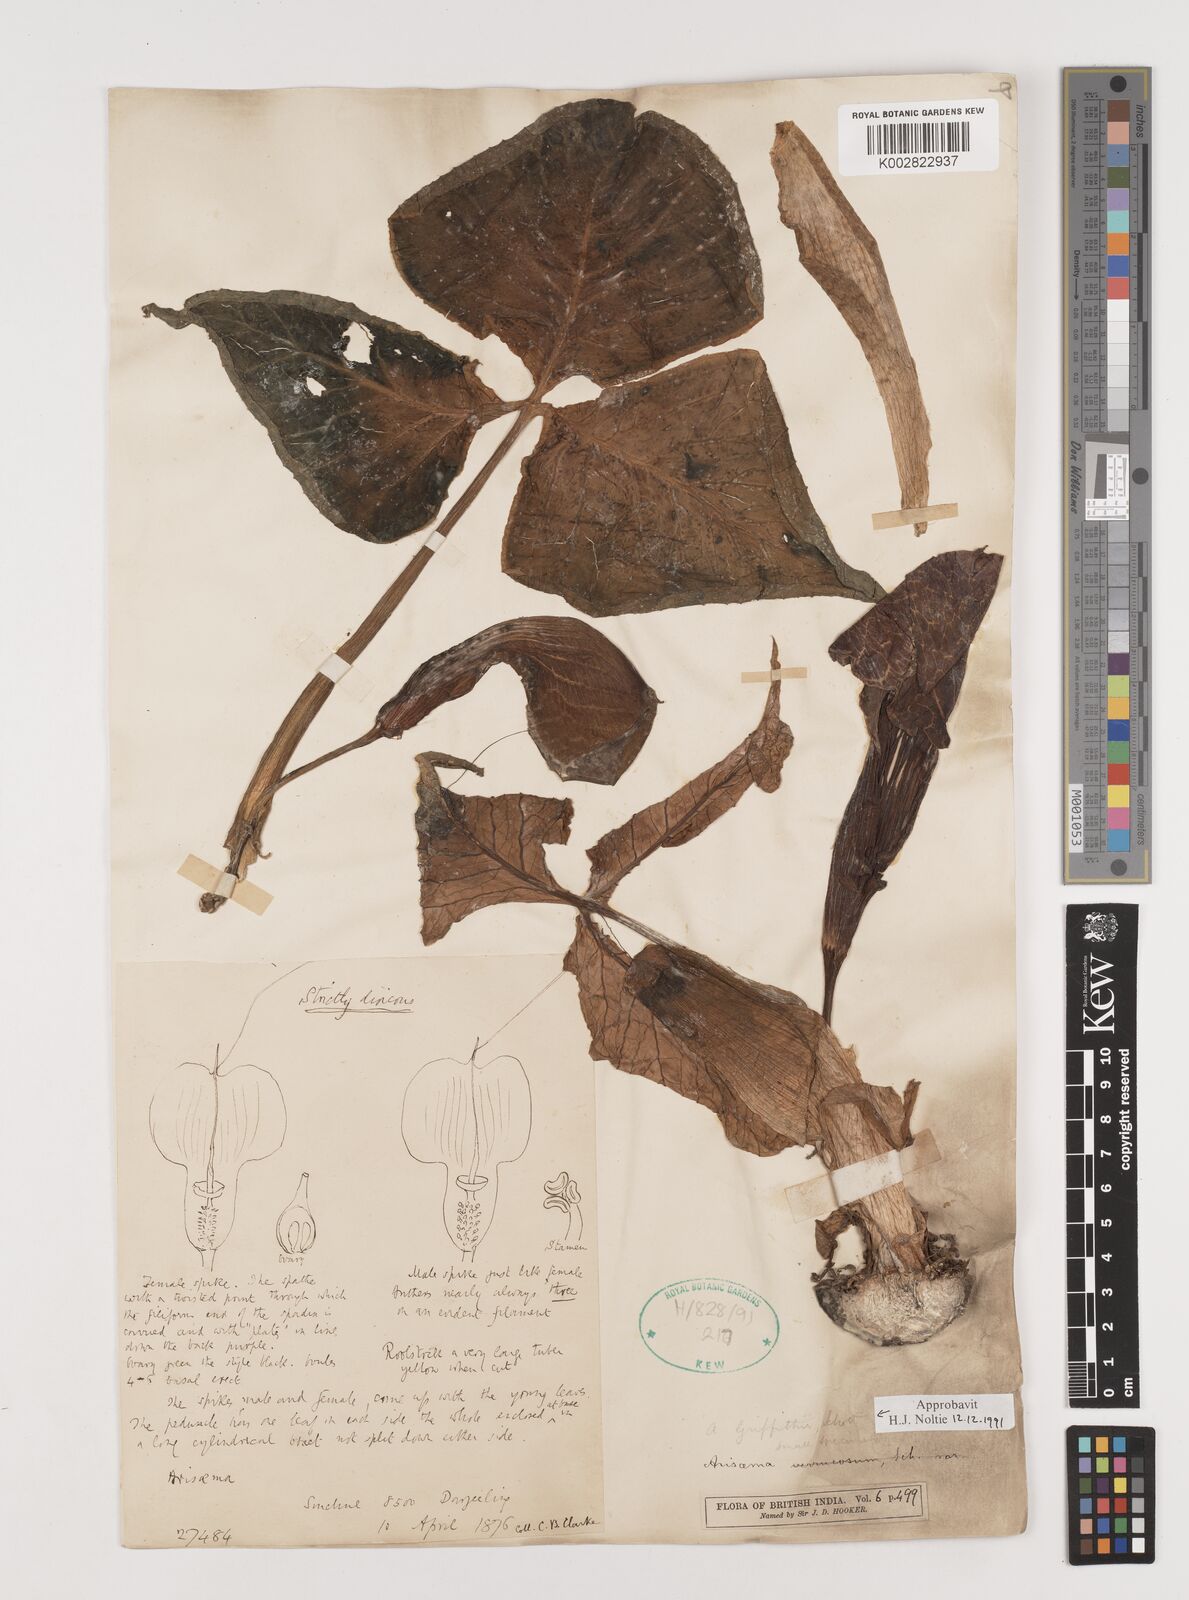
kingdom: Plantae
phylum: Tracheophyta
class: Liliopsida
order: Alismatales
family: Araceae
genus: Arisaema
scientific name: Arisaema griffithii
